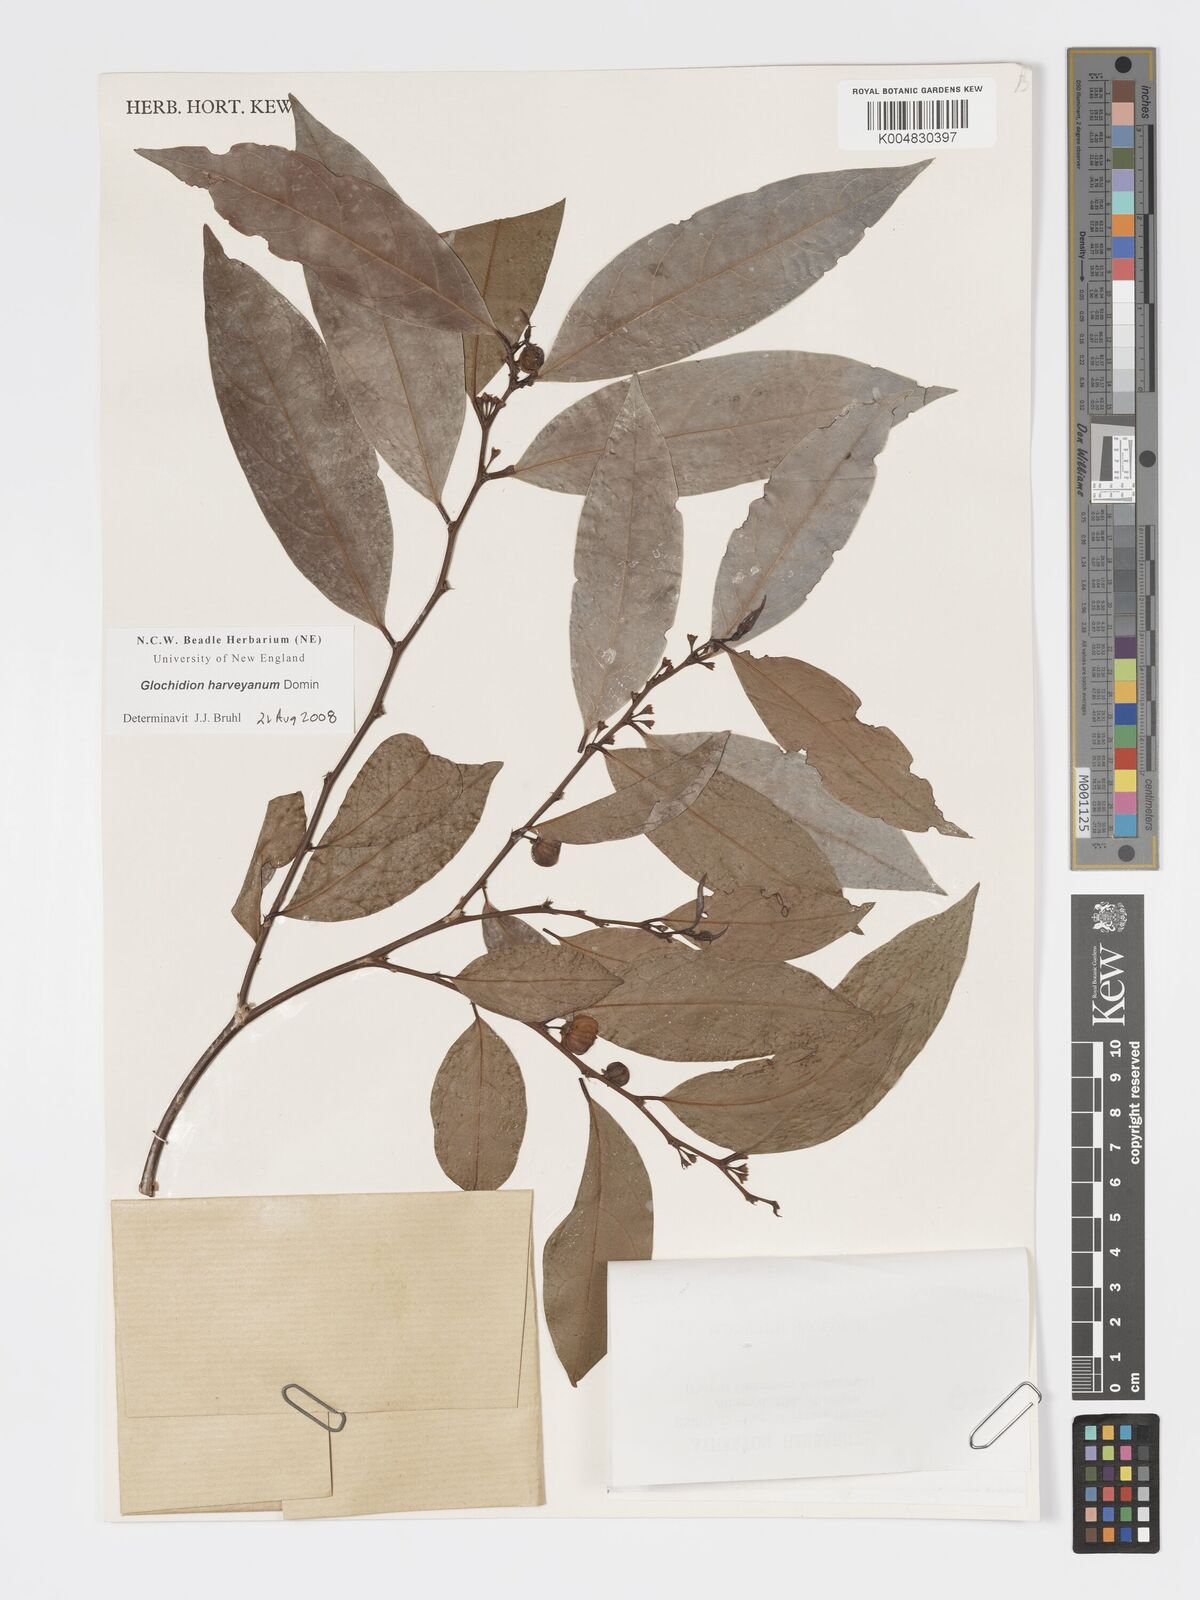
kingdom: Plantae
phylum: Tracheophyta
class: Magnoliopsida
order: Malpighiales
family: Phyllanthaceae
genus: Glochidion
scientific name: Glochidion harveyanum
